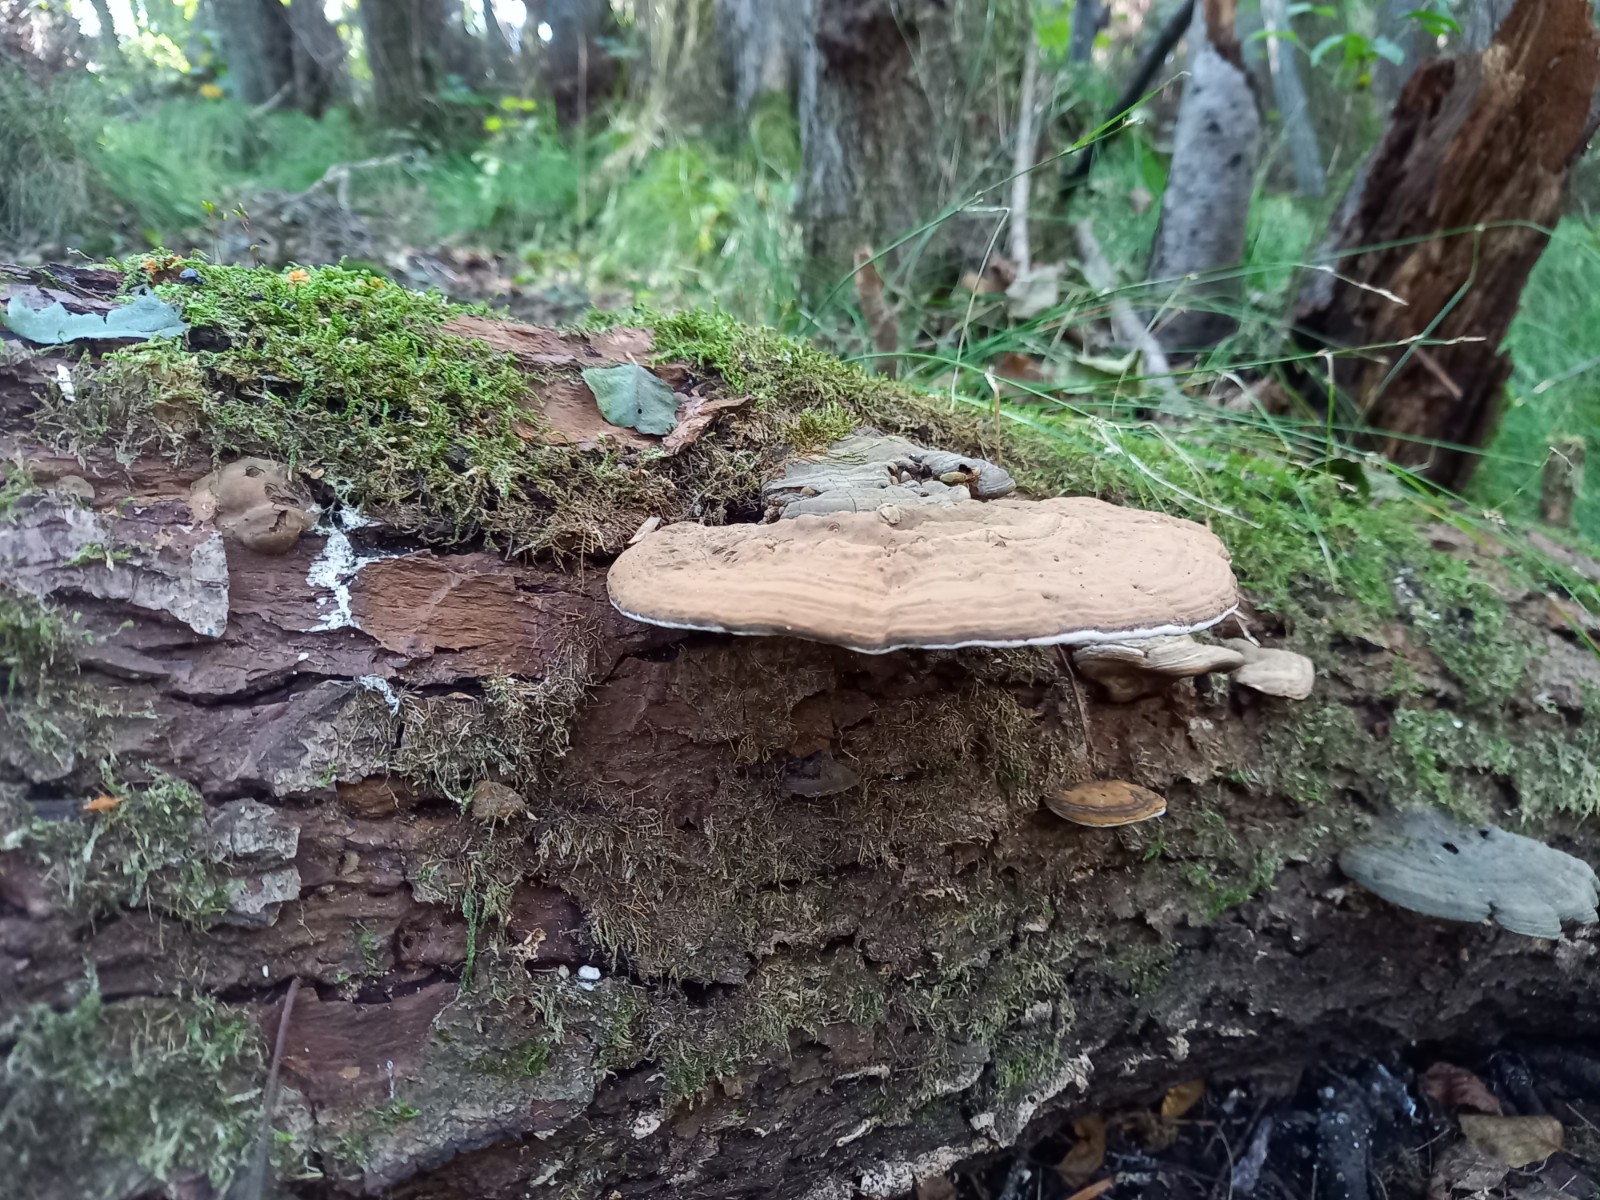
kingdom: Fungi
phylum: Basidiomycota
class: Agaricomycetes
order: Polyporales
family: Polyporaceae
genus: Ganoderma
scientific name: Ganoderma applanatum
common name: flad lakporesvamp
